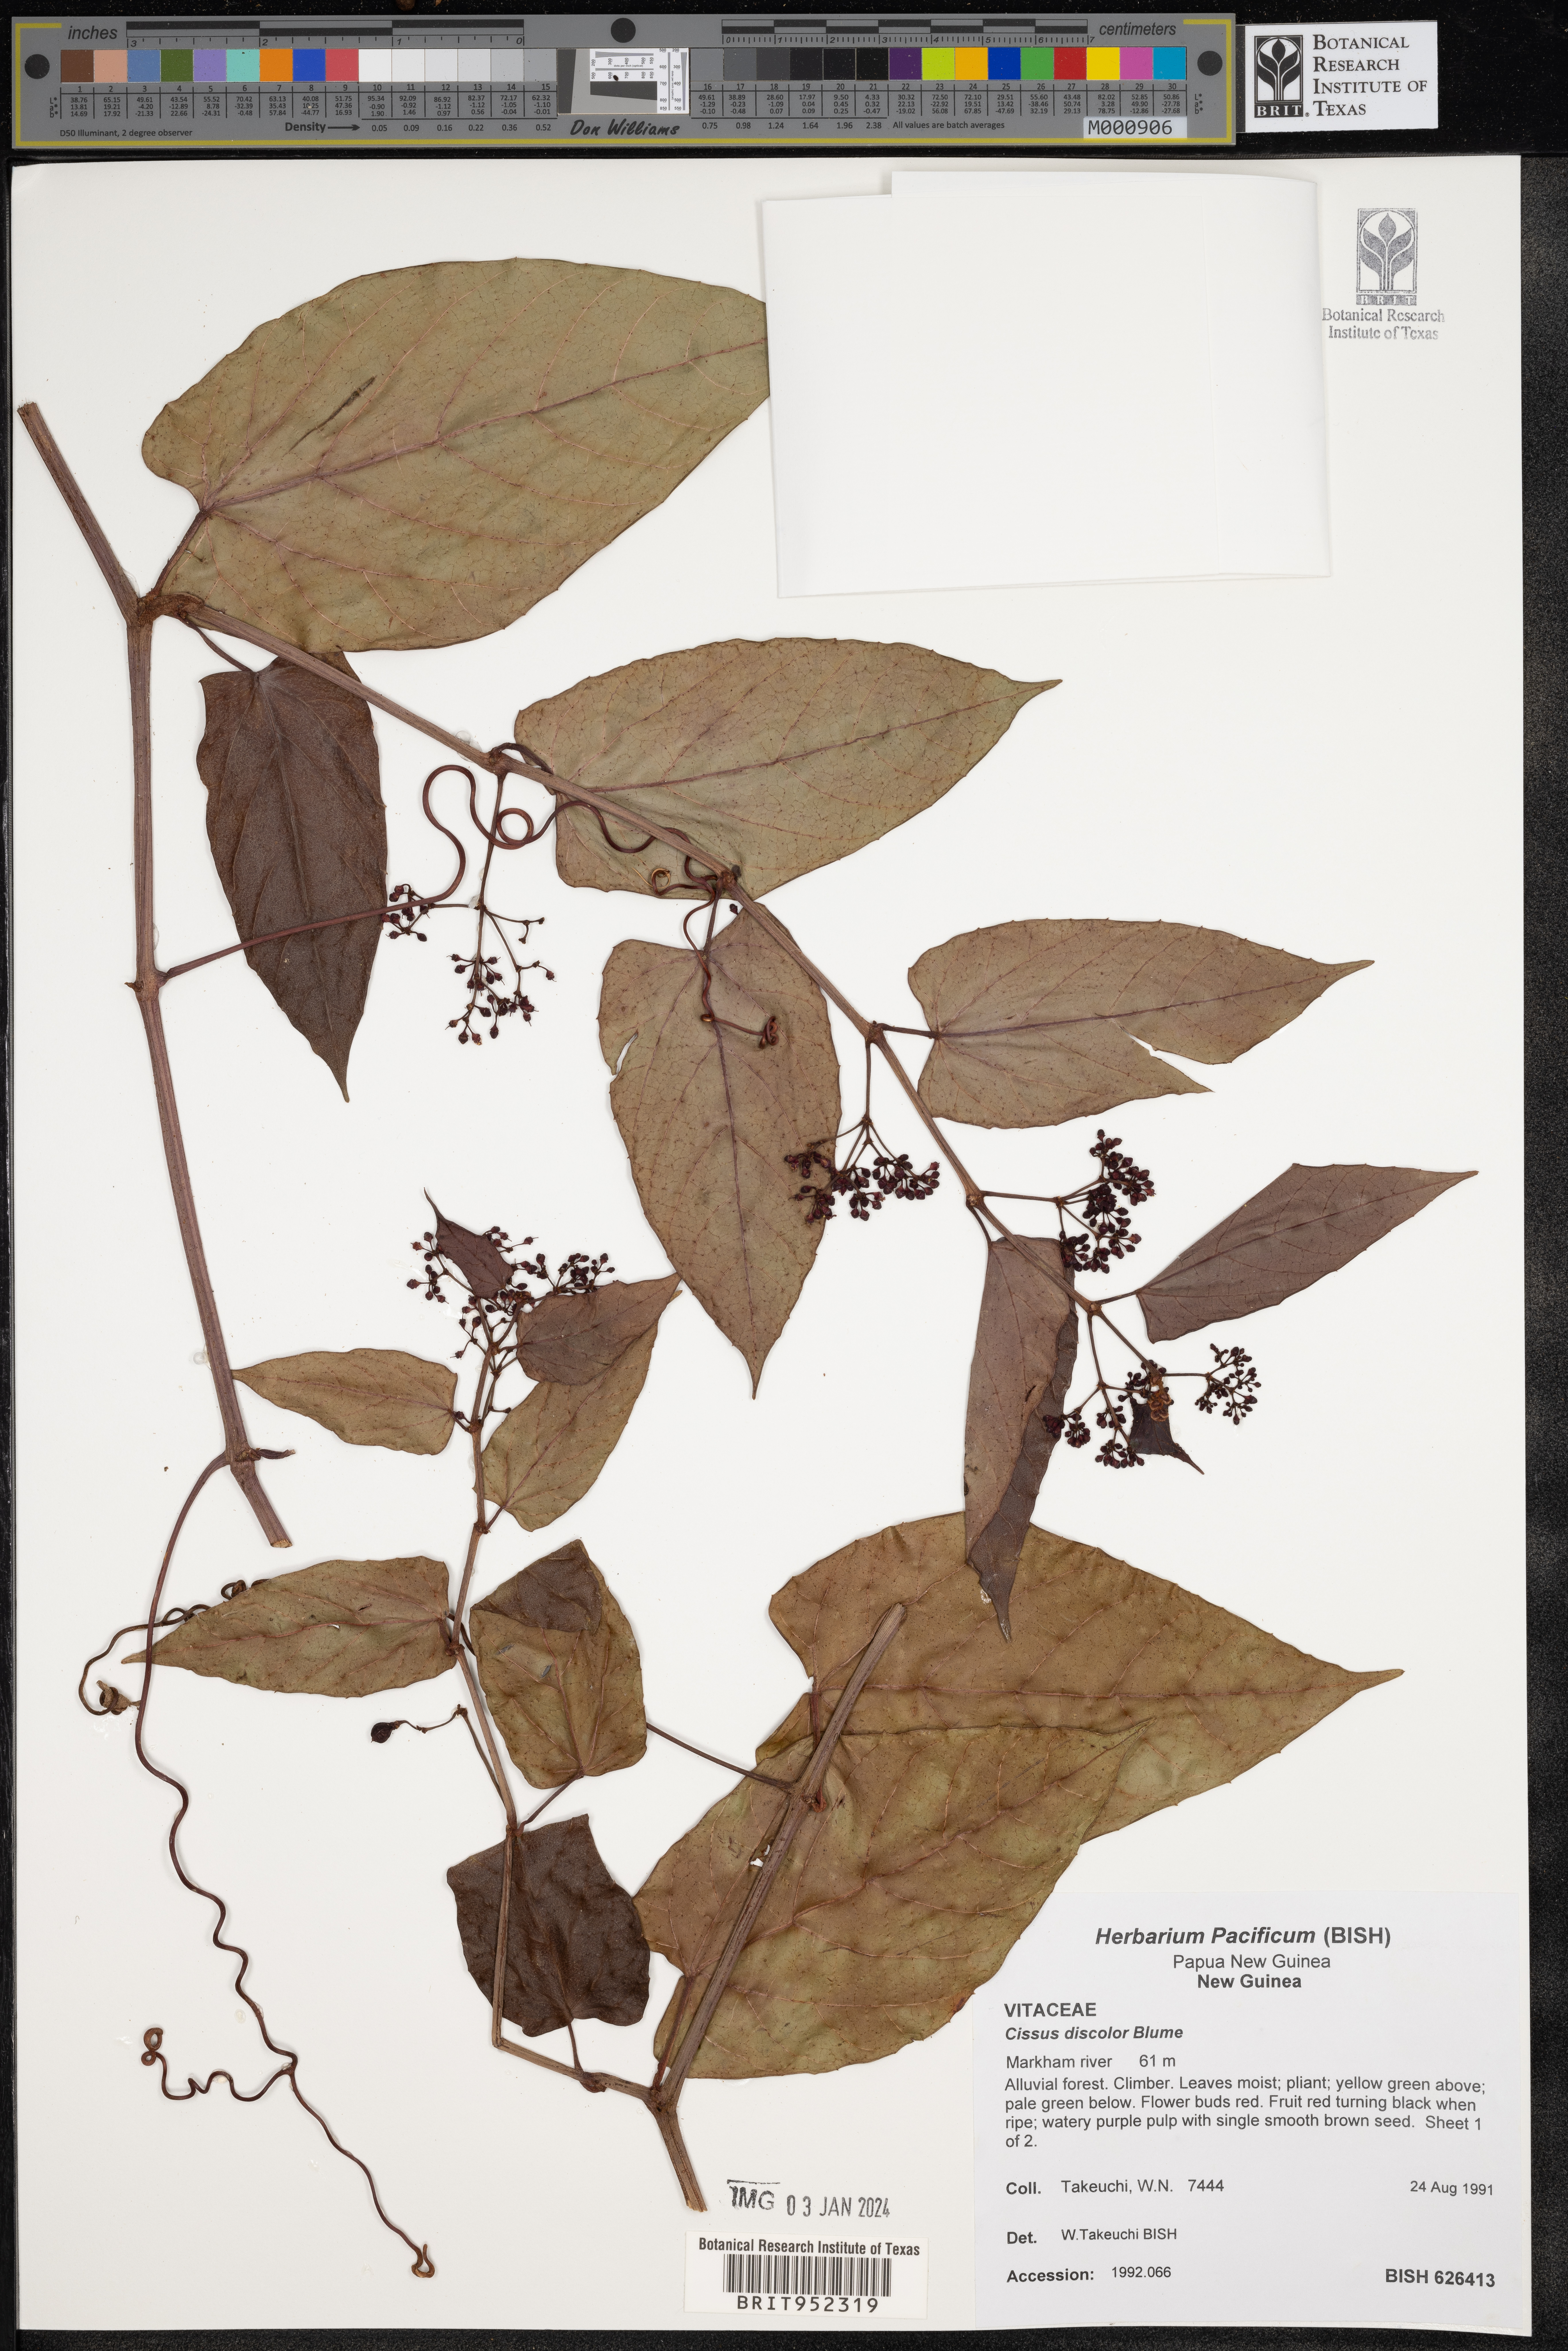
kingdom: Plantae
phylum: Tracheophyta
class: Magnoliopsida
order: Vitales
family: Vitaceae
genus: Cissus
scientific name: Cissus
